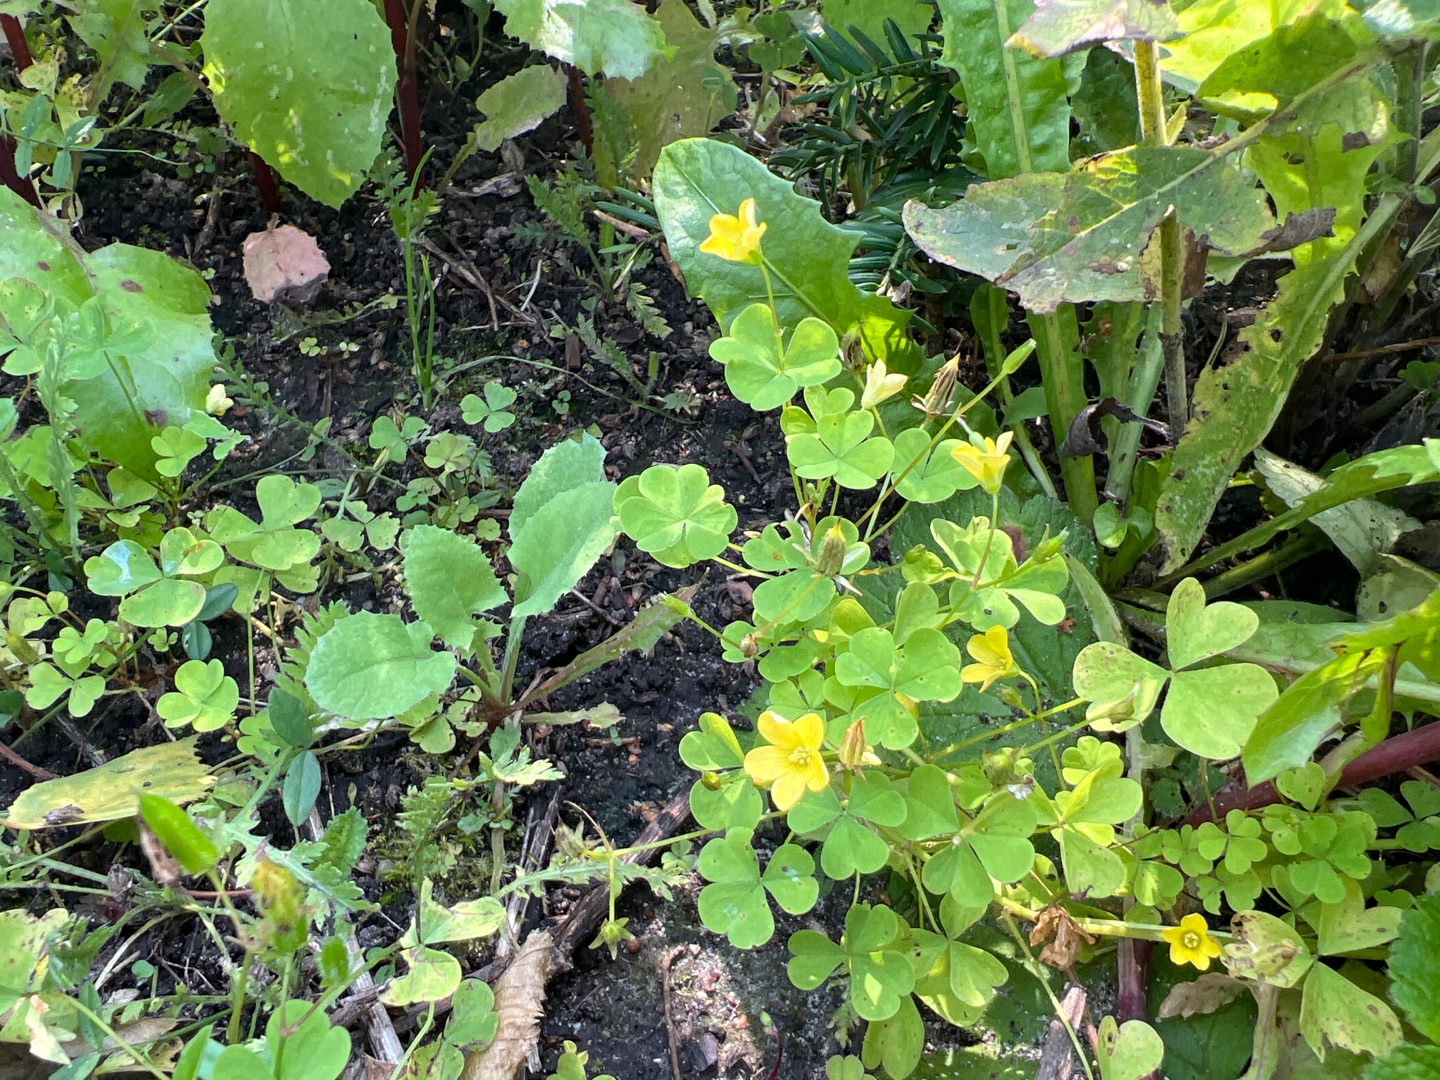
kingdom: Plantae
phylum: Tracheophyta
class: Magnoliopsida
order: Oxalidales
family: Oxalidaceae
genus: Oxalis
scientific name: Oxalis stricta
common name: Rank surkløver
